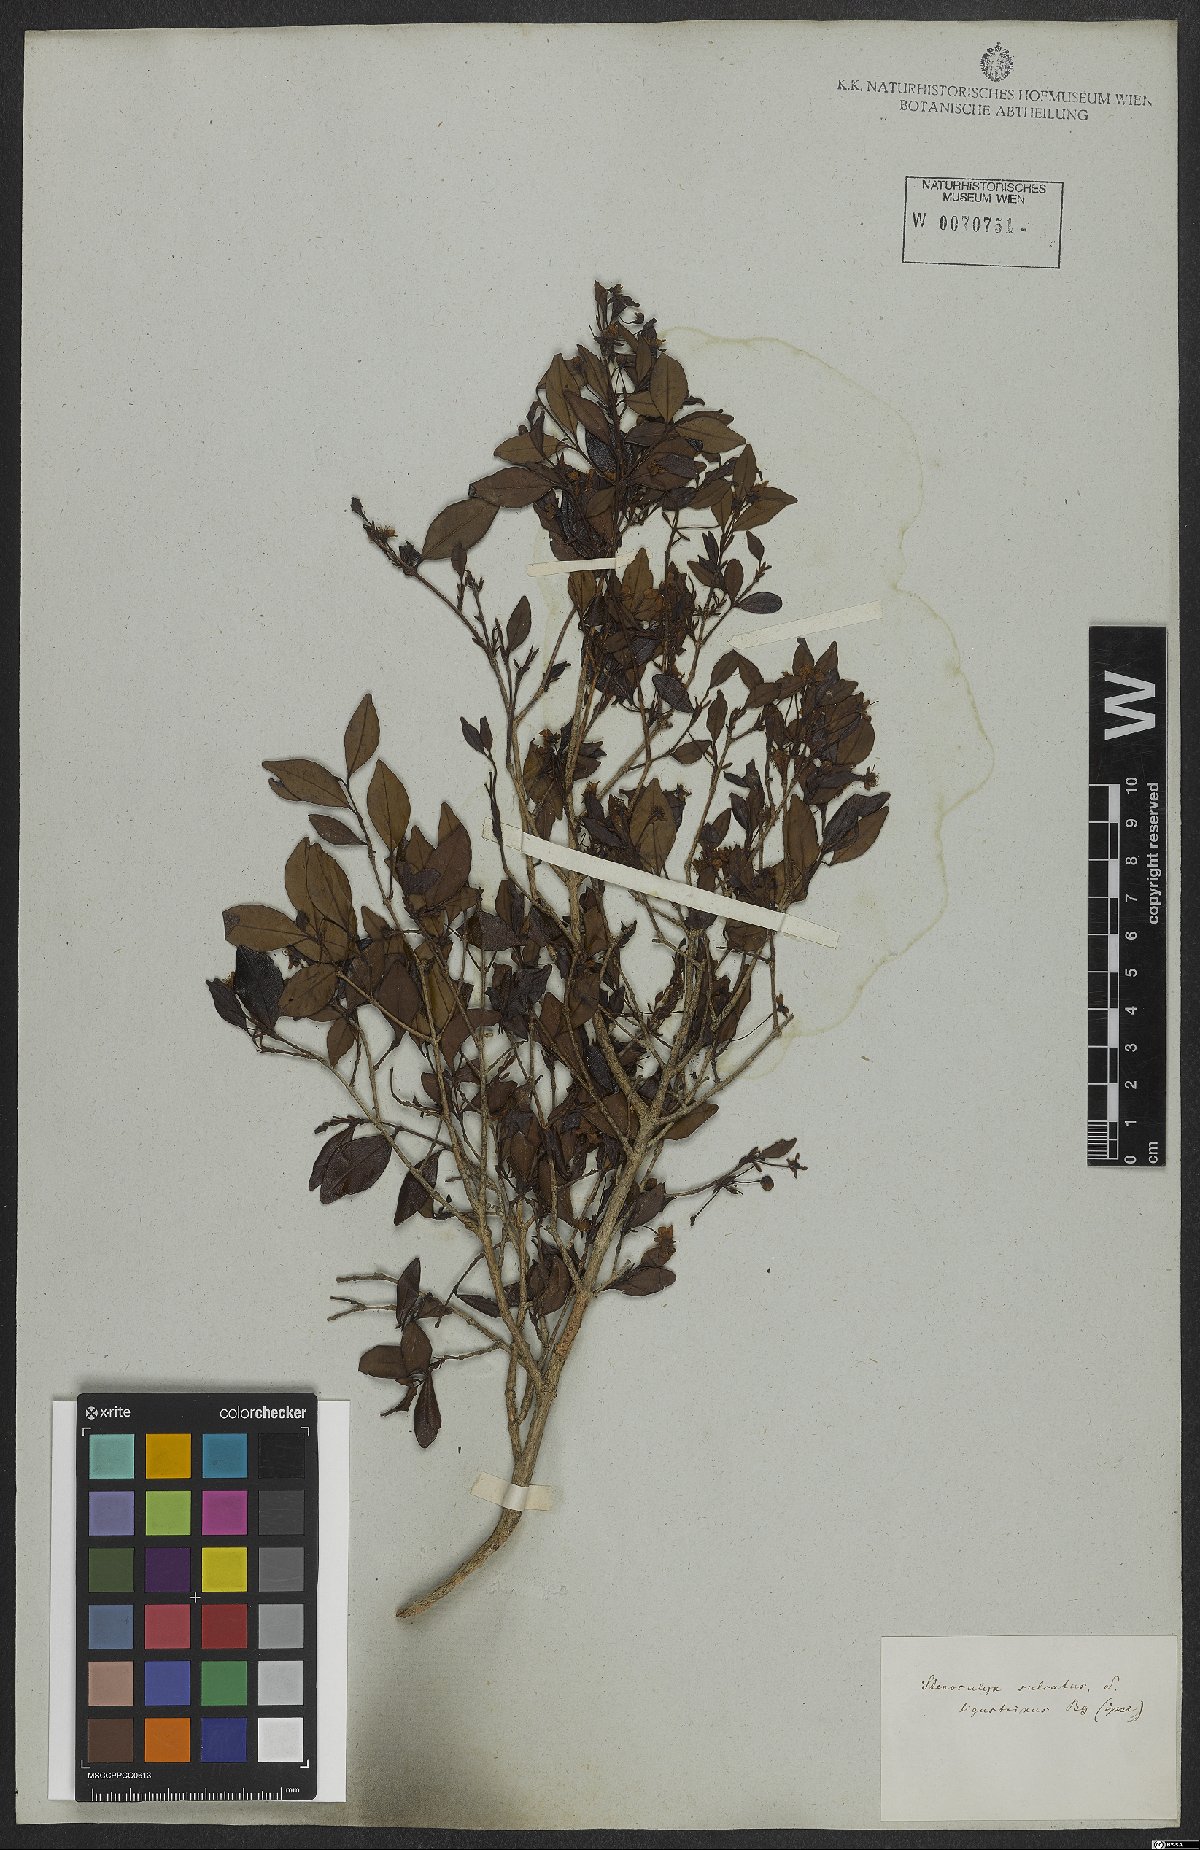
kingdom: Plantae
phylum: Tracheophyta
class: Magnoliopsida
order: Myrtales
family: Myrtaceae
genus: Eugenia
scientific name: Eugenia sulcata
